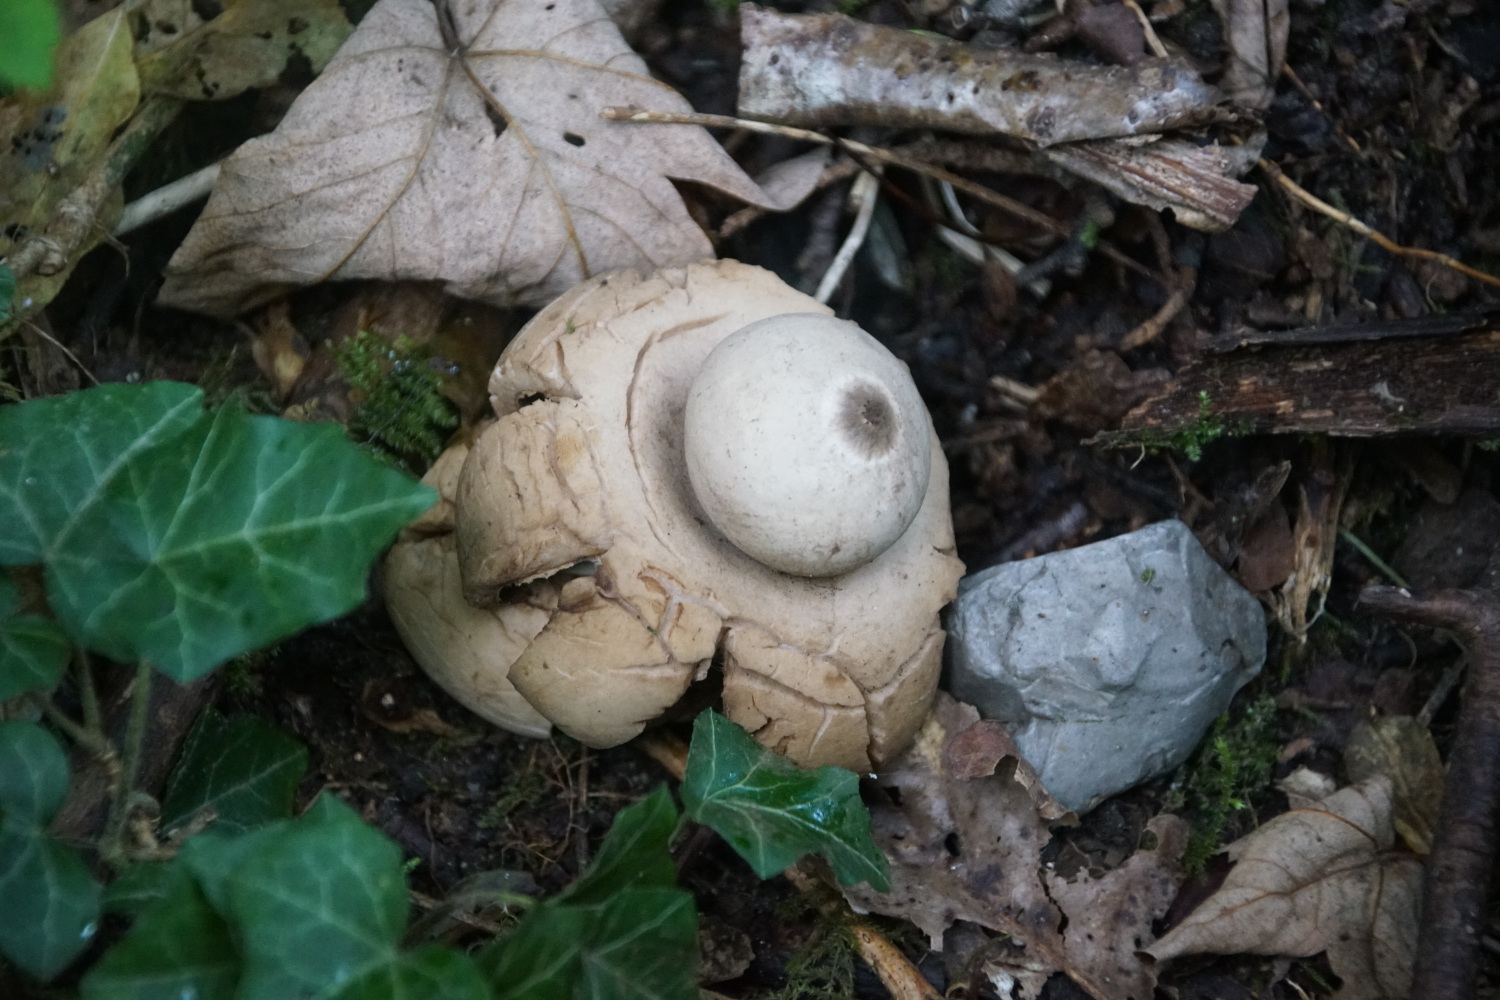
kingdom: Fungi
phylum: Basidiomycota
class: Agaricomycetes
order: Geastrales
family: Geastraceae
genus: Geastrum
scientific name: Geastrum michelianum
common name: kødet stjernebold
